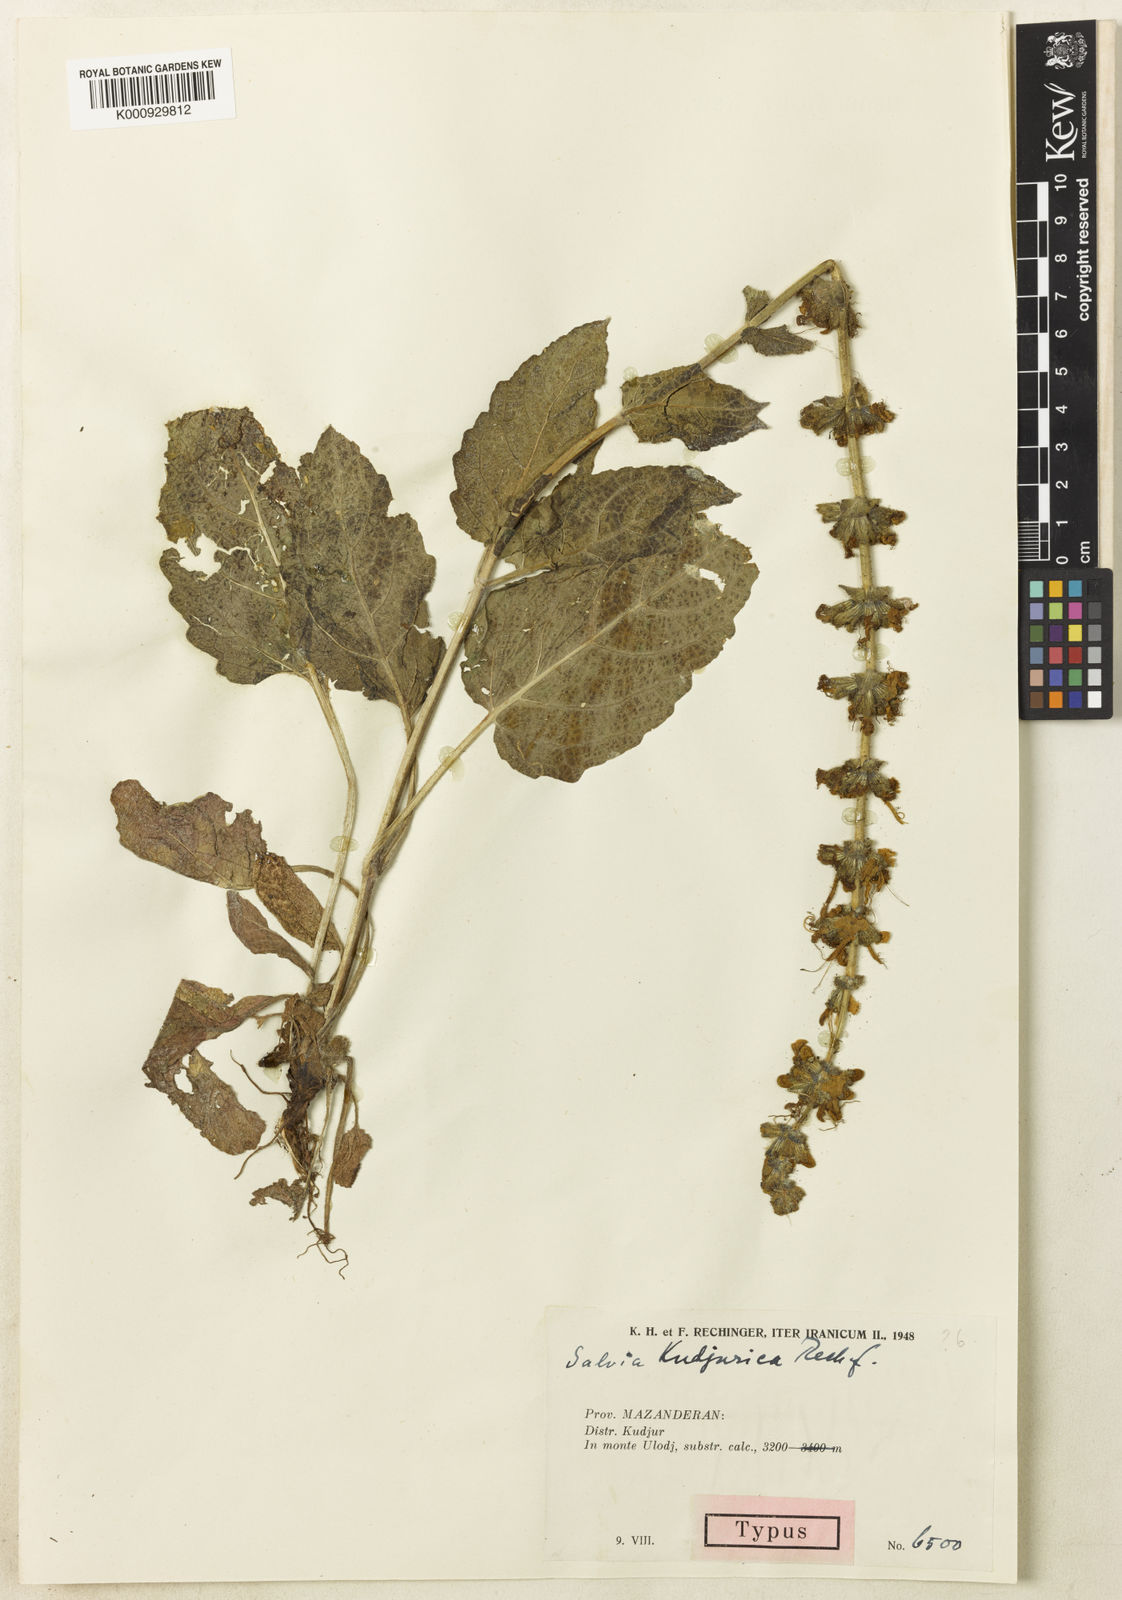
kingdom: Plantae
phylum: Tracheophyta
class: Magnoliopsida
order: Lamiales
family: Lamiaceae
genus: Salvia
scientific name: Salvia staminea
